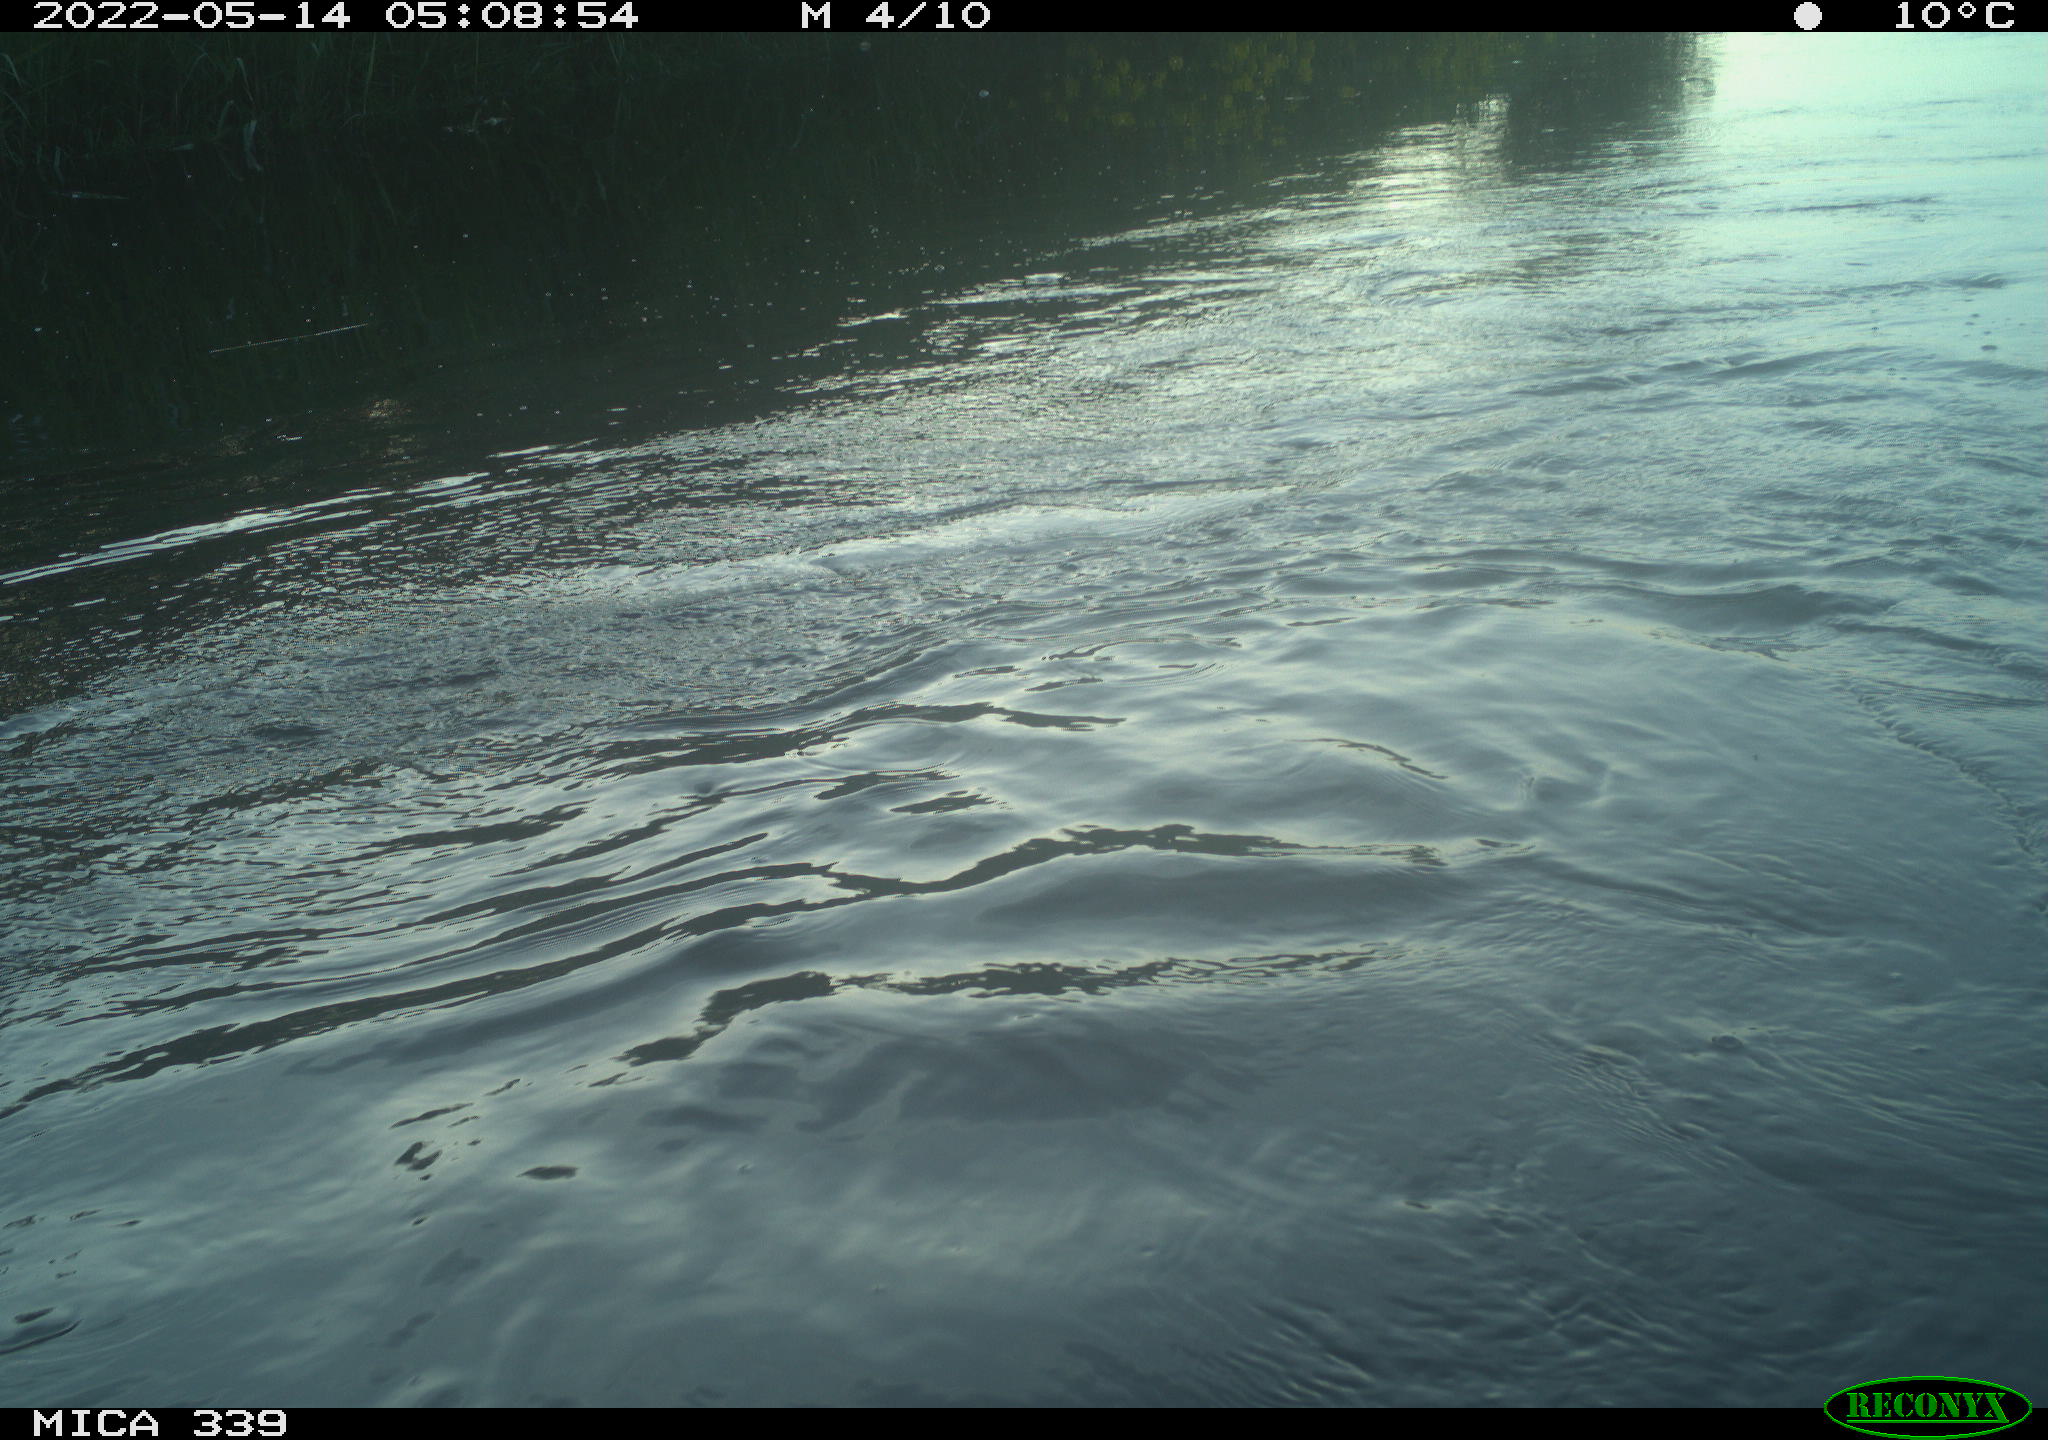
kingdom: Animalia
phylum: Chordata
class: Aves
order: Pelecaniformes
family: Ardeidae
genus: Ardea
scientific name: Ardea cinerea
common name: Grey heron
